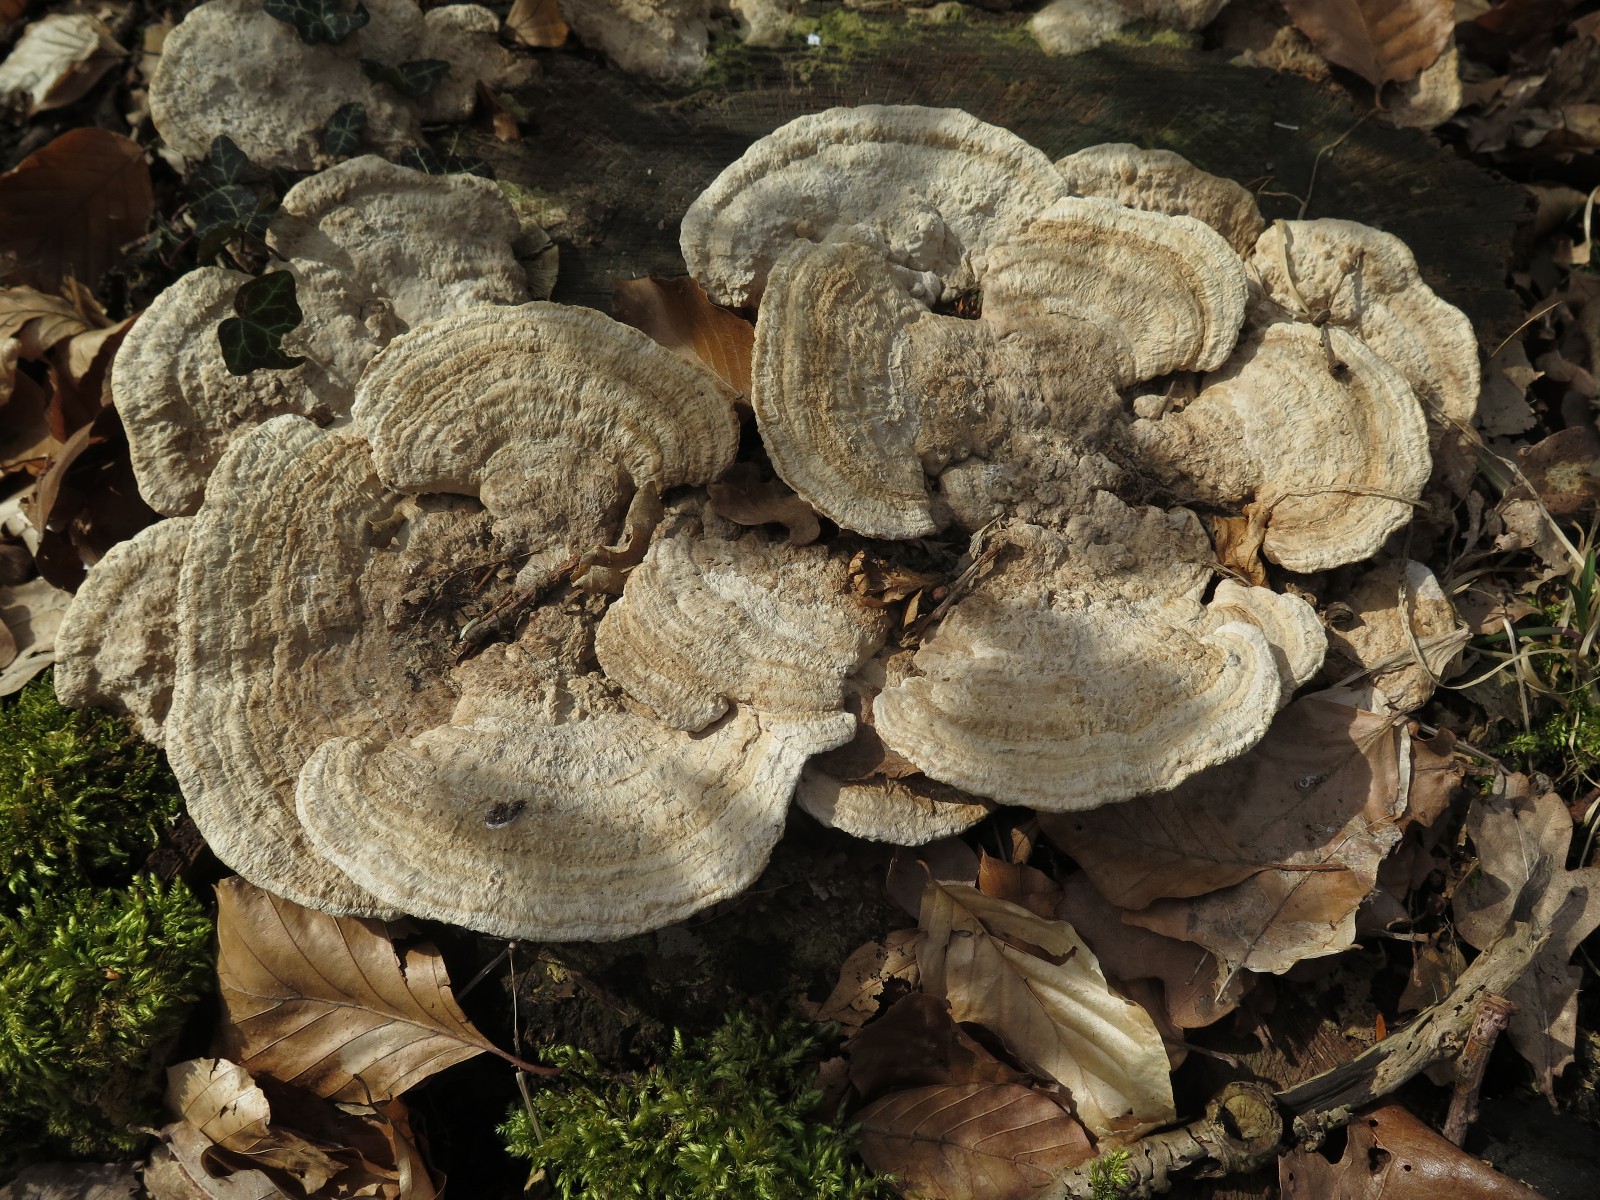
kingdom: Fungi
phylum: Basidiomycota
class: Agaricomycetes
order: Polyporales
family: Fomitopsidaceae
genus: Daedalea
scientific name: Daedalea quercina
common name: ege-labyrintsvamp
